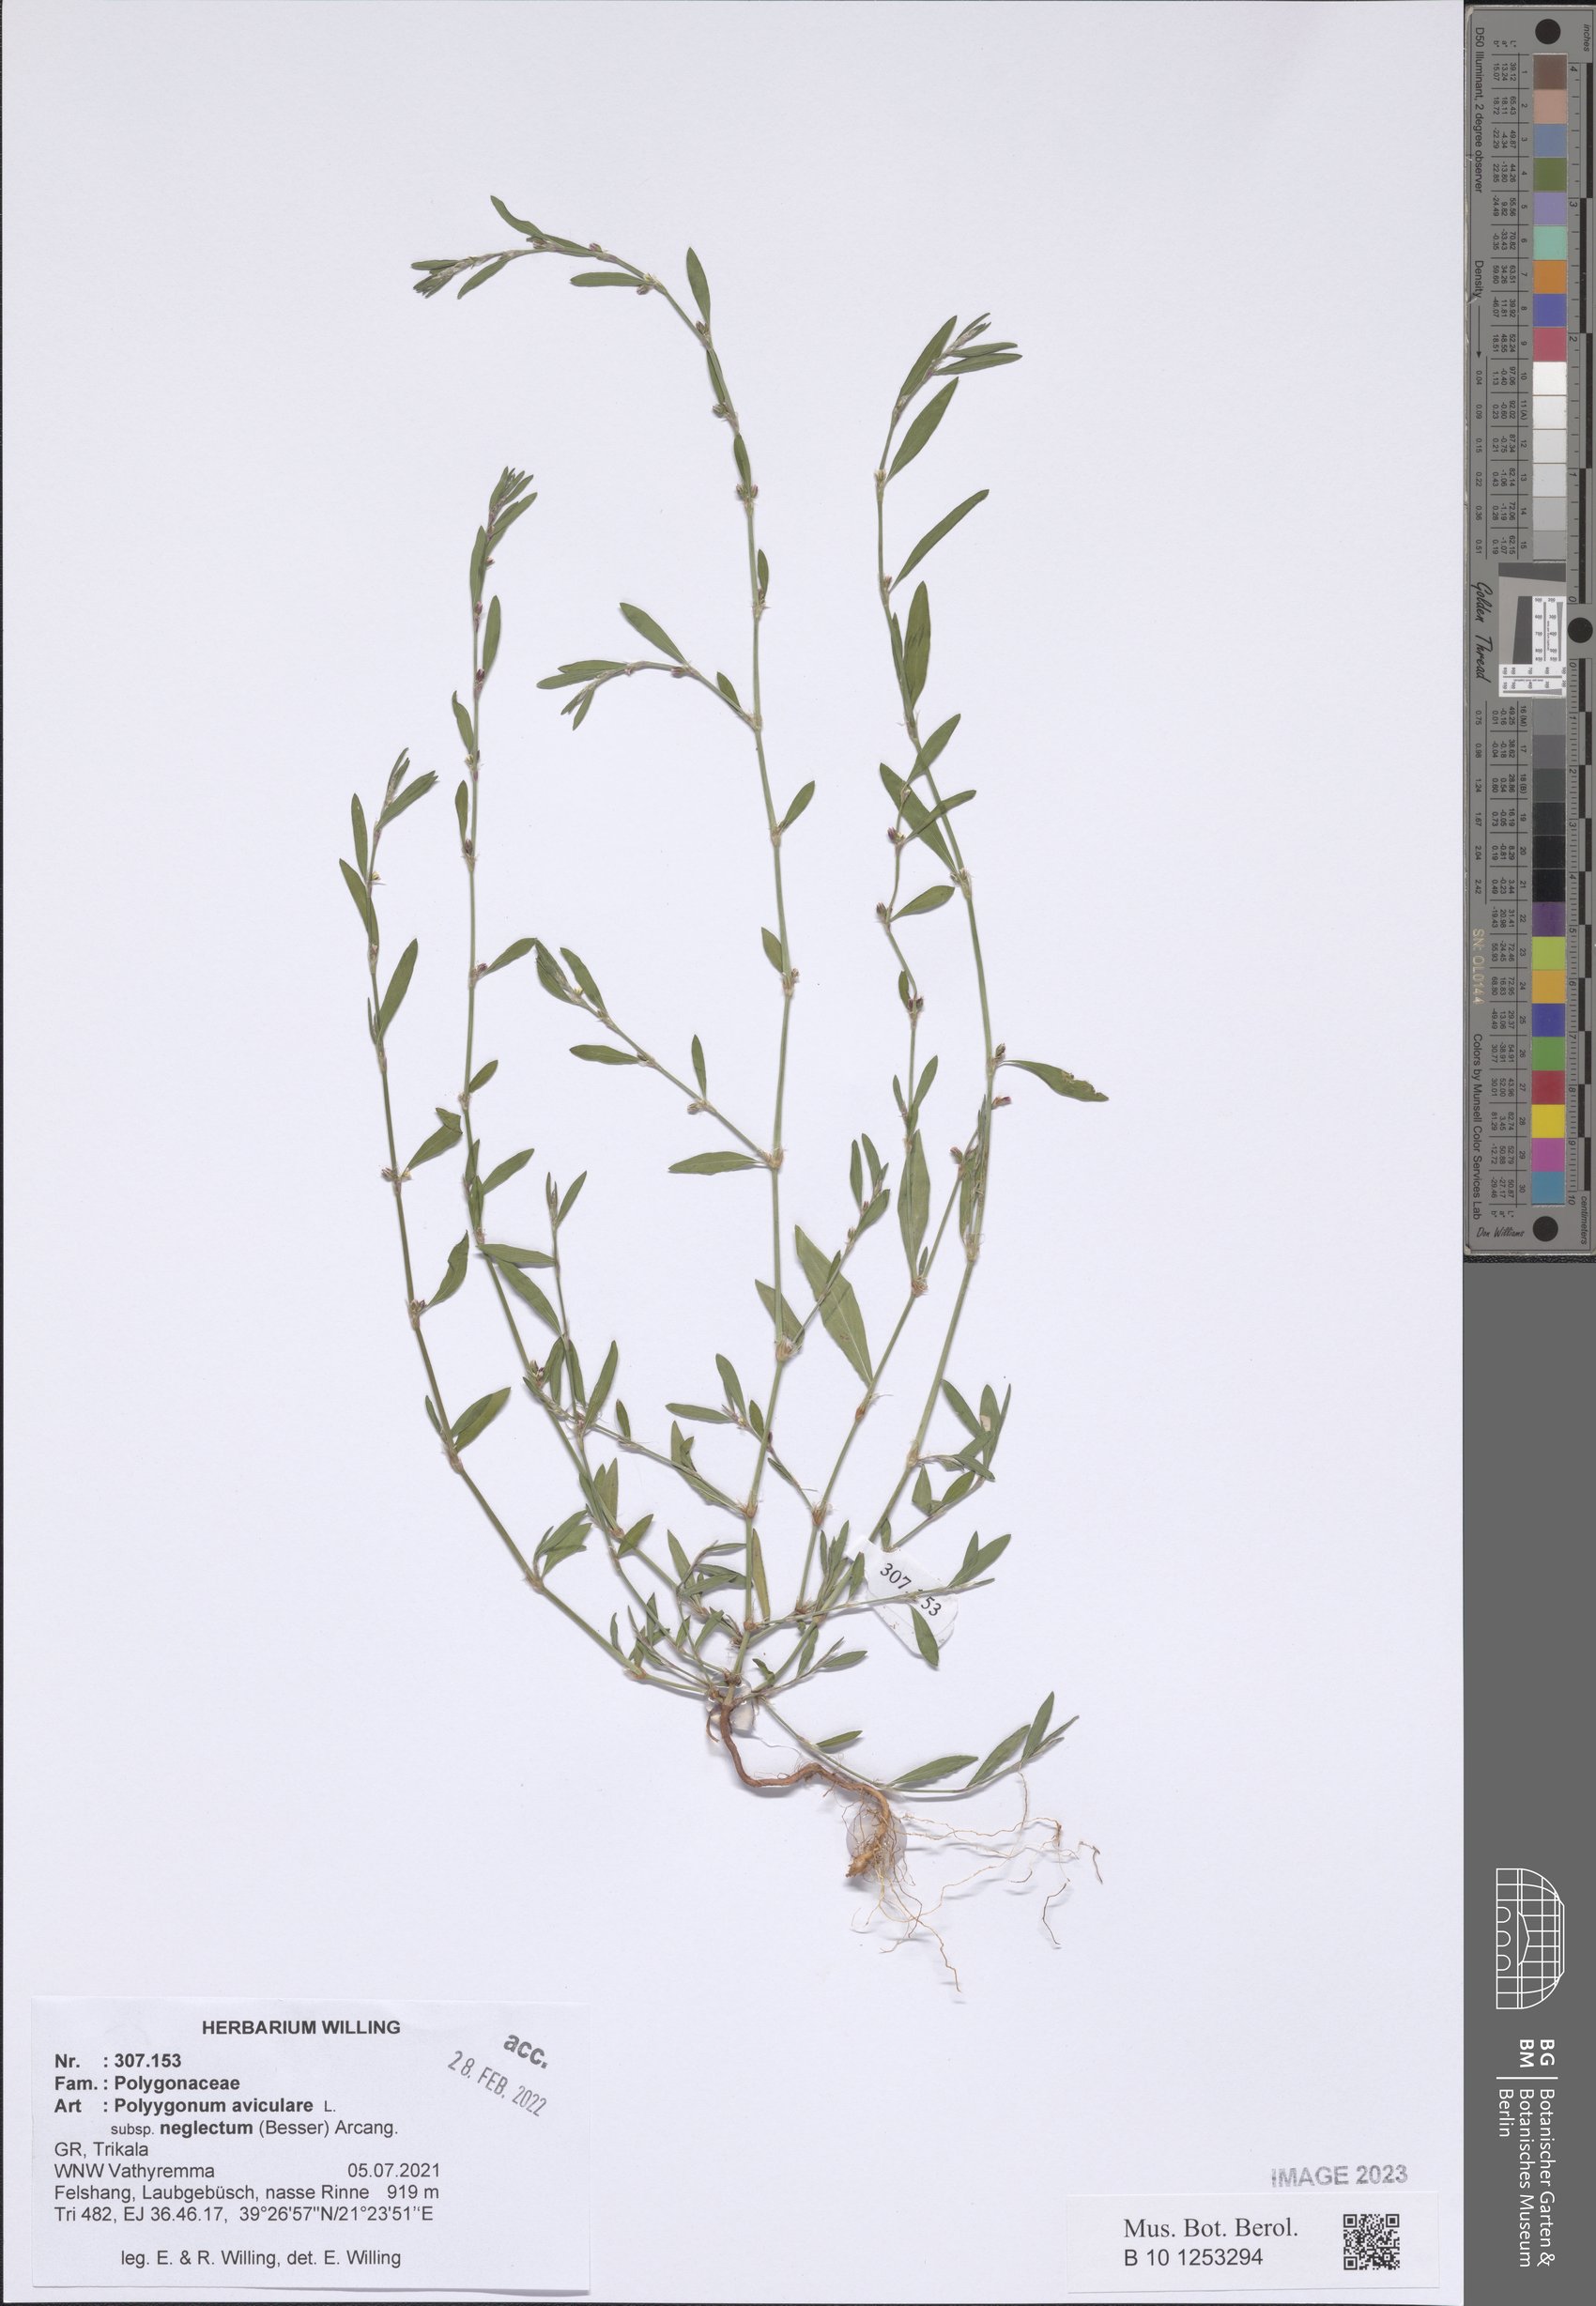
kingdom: Plantae
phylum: Tracheophyta
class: Magnoliopsida
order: Caryophyllales
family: Polygonaceae
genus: Polygonum
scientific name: Polygonum aviculare
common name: Prostrate knotweed
